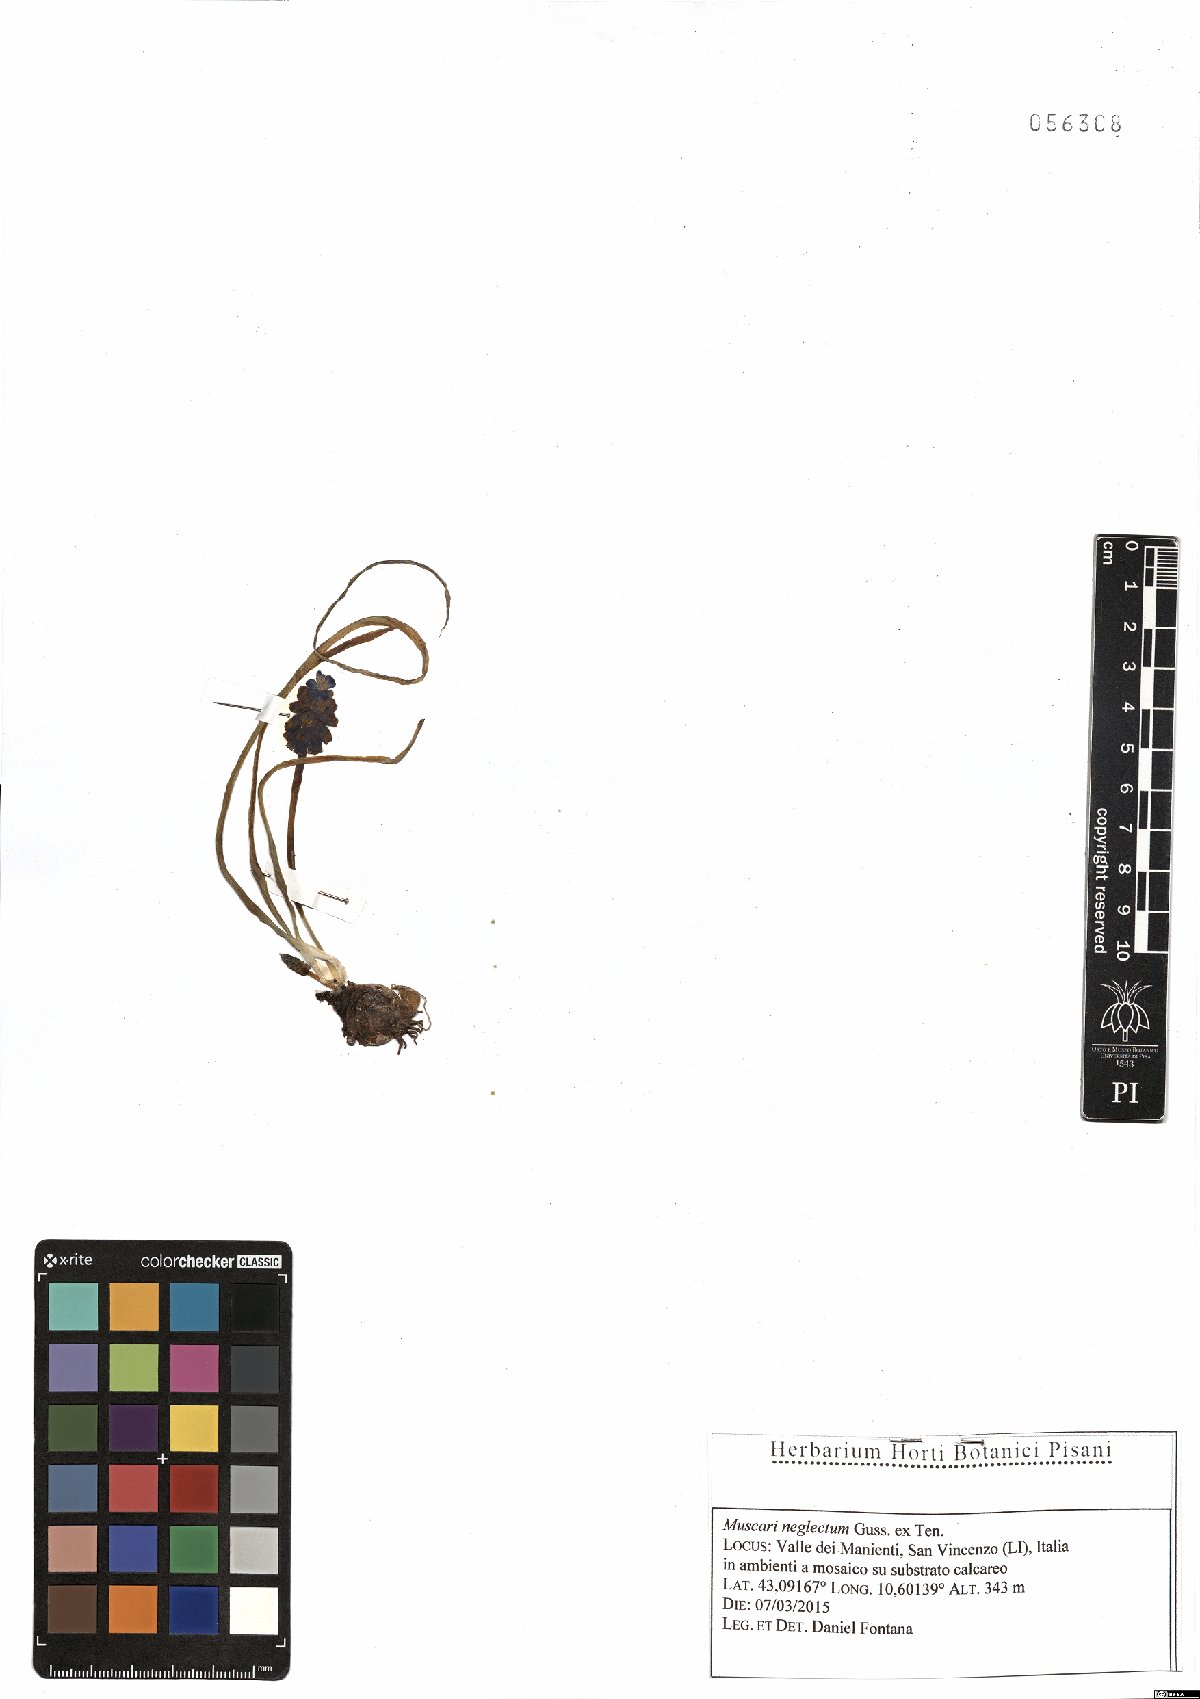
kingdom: Plantae
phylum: Tracheophyta
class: Liliopsida
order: Asparagales
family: Asparagaceae
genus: Muscari
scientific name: Muscari neglectum
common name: Grape-hyacinth
